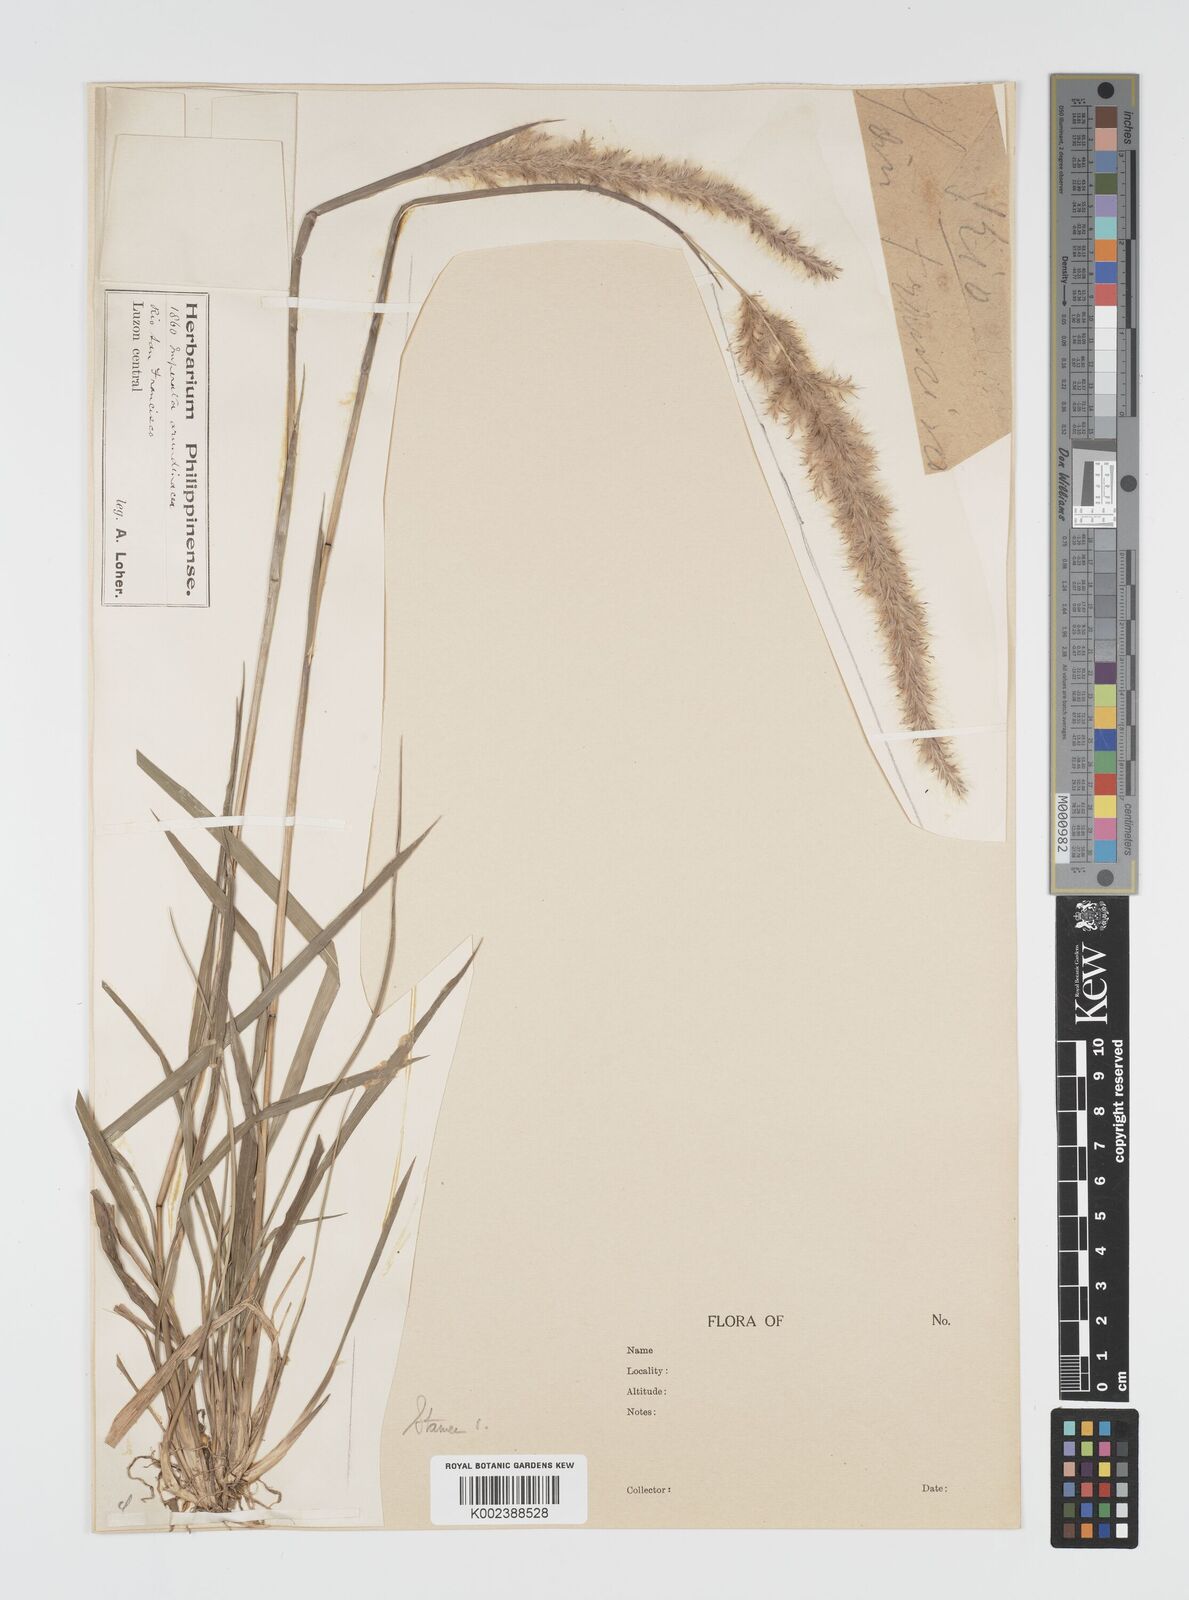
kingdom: Plantae
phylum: Tracheophyta
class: Liliopsida
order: Poales
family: Poaceae
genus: Imperata
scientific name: Imperata conferta
